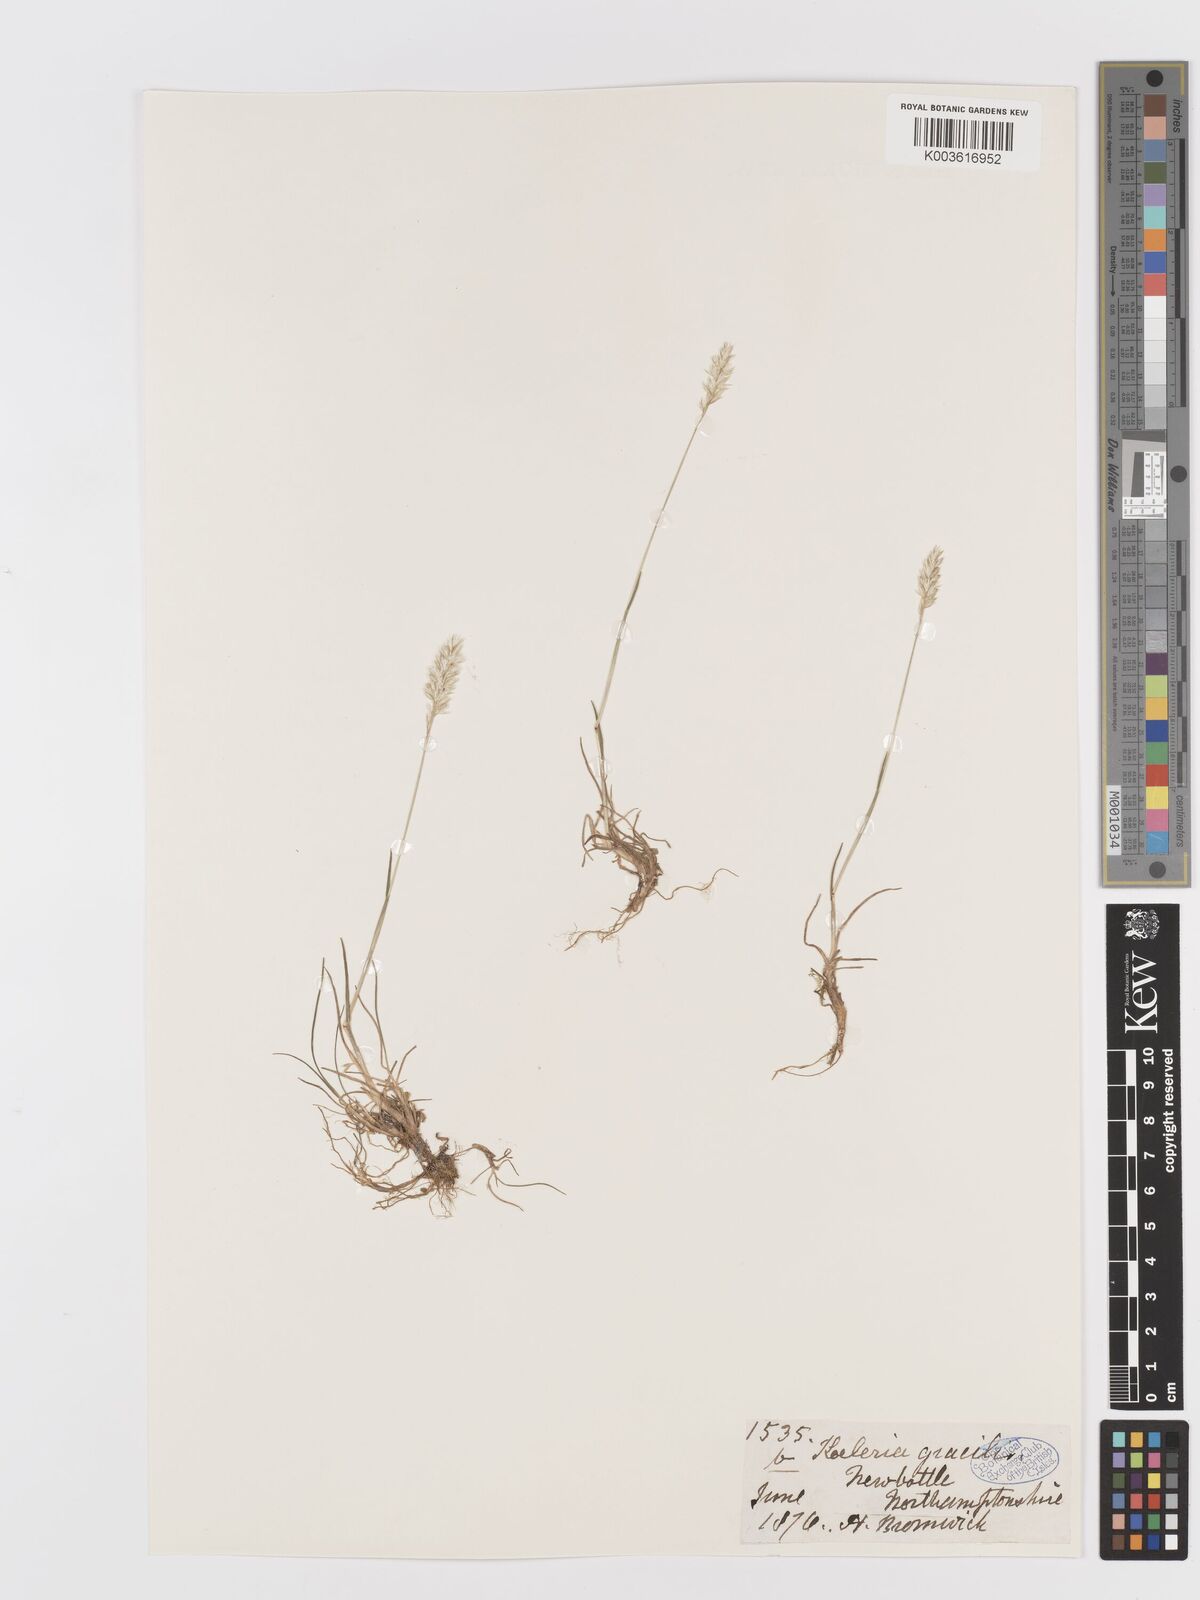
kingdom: Plantae
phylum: Tracheophyta
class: Liliopsida
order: Poales
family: Poaceae
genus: Koeleria
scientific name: Koeleria macrantha
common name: Crested hair-grass
